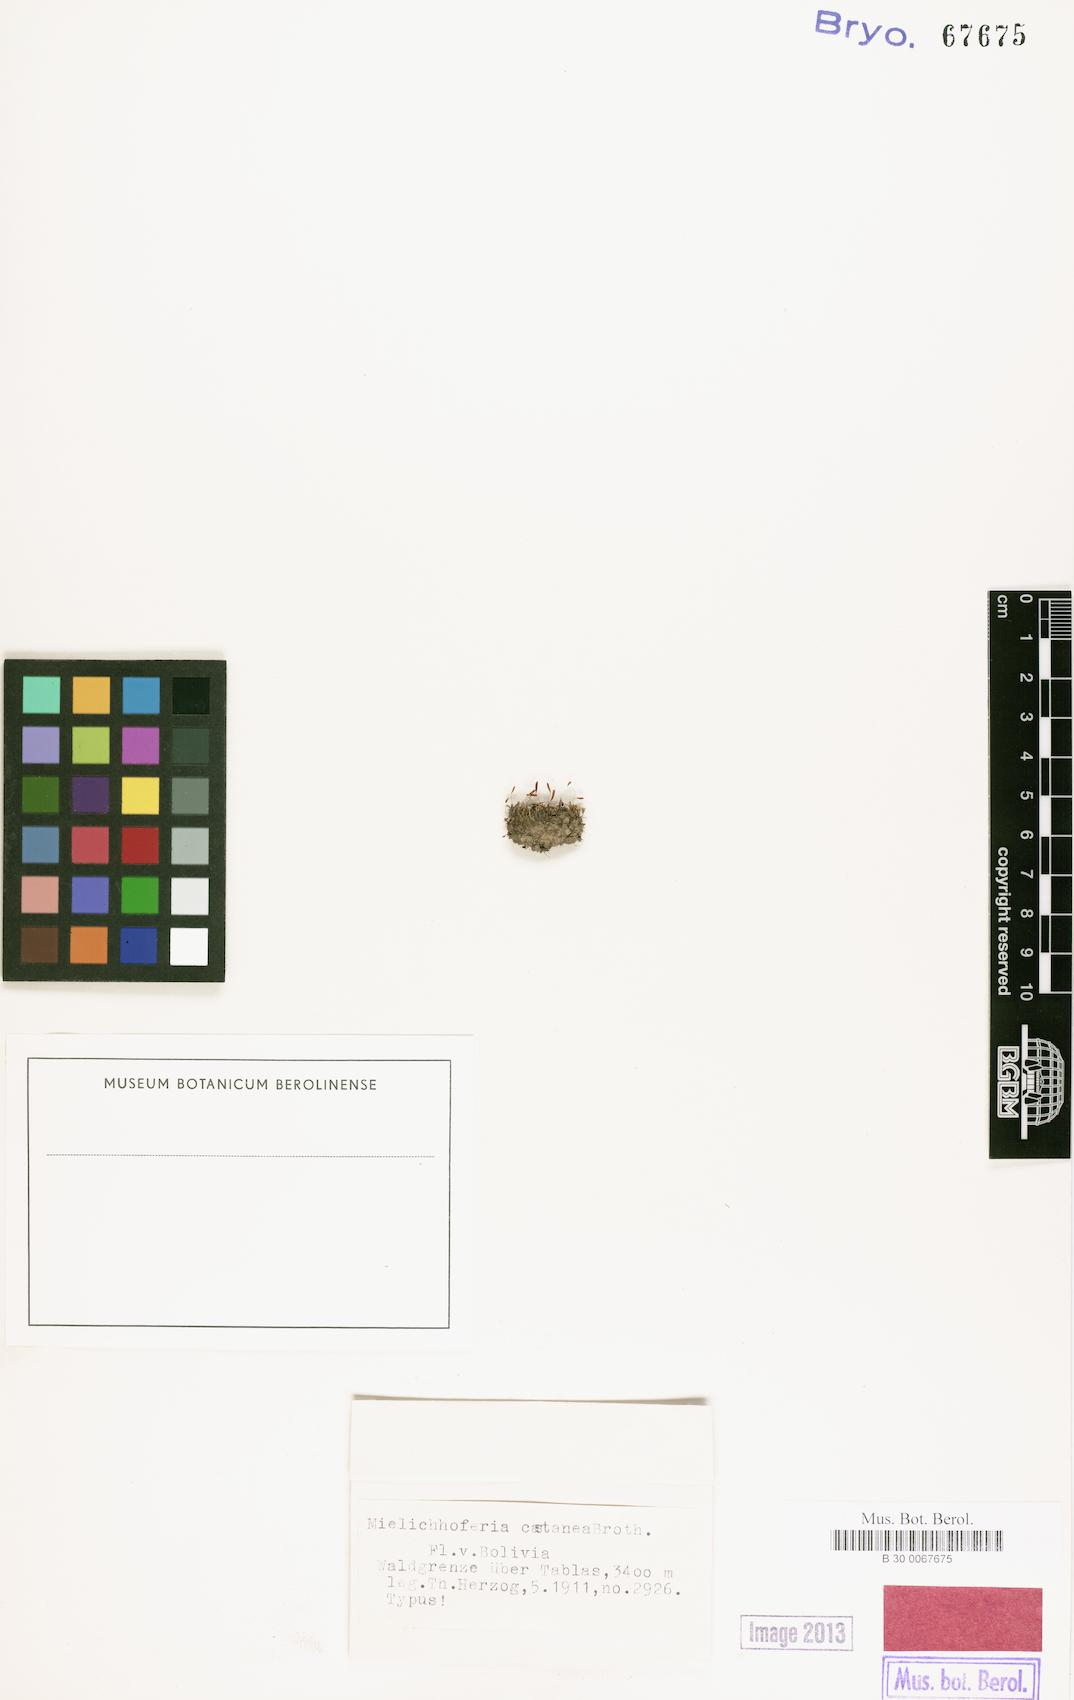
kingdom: Plantae
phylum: Bryophyta
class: Bryopsida
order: Bryales
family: Mniaceae
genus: Schizymenium
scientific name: Schizymenium gracilisetum
